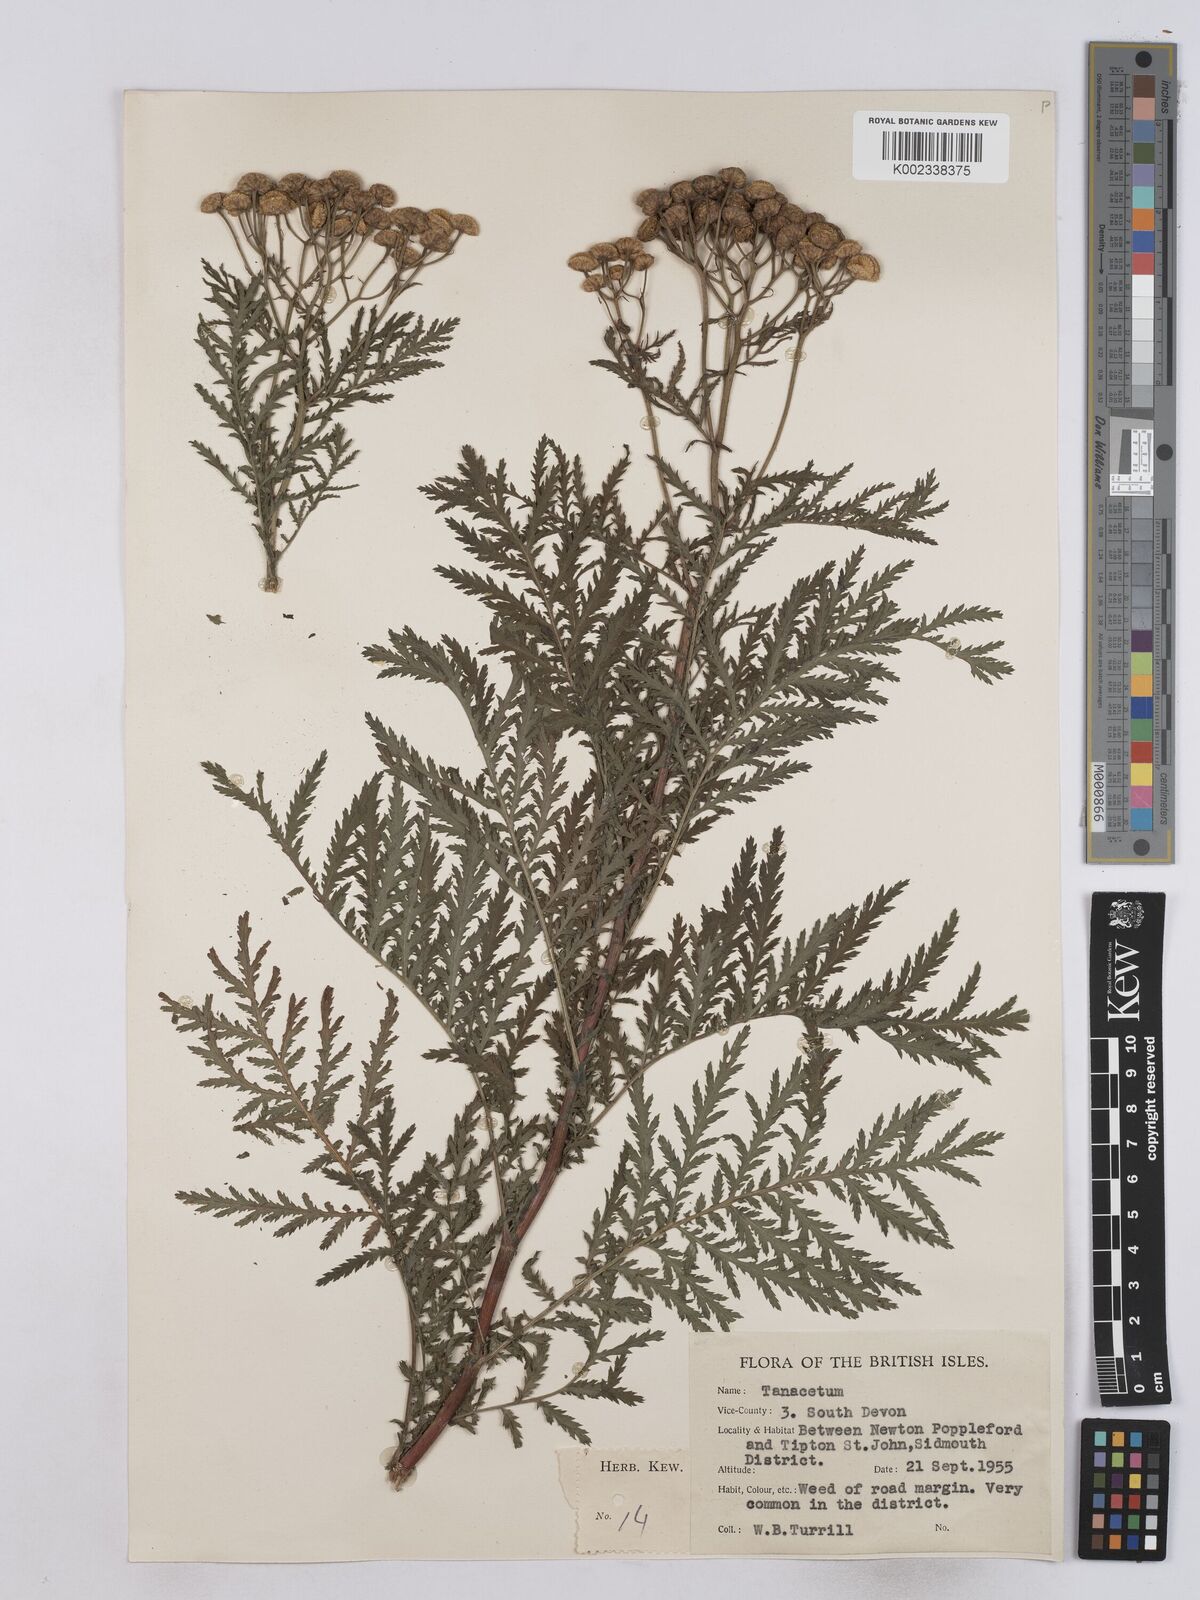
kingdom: Plantae
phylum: Tracheophyta
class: Magnoliopsida
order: Asterales
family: Asteraceae
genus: Tanacetum
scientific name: Tanacetum
